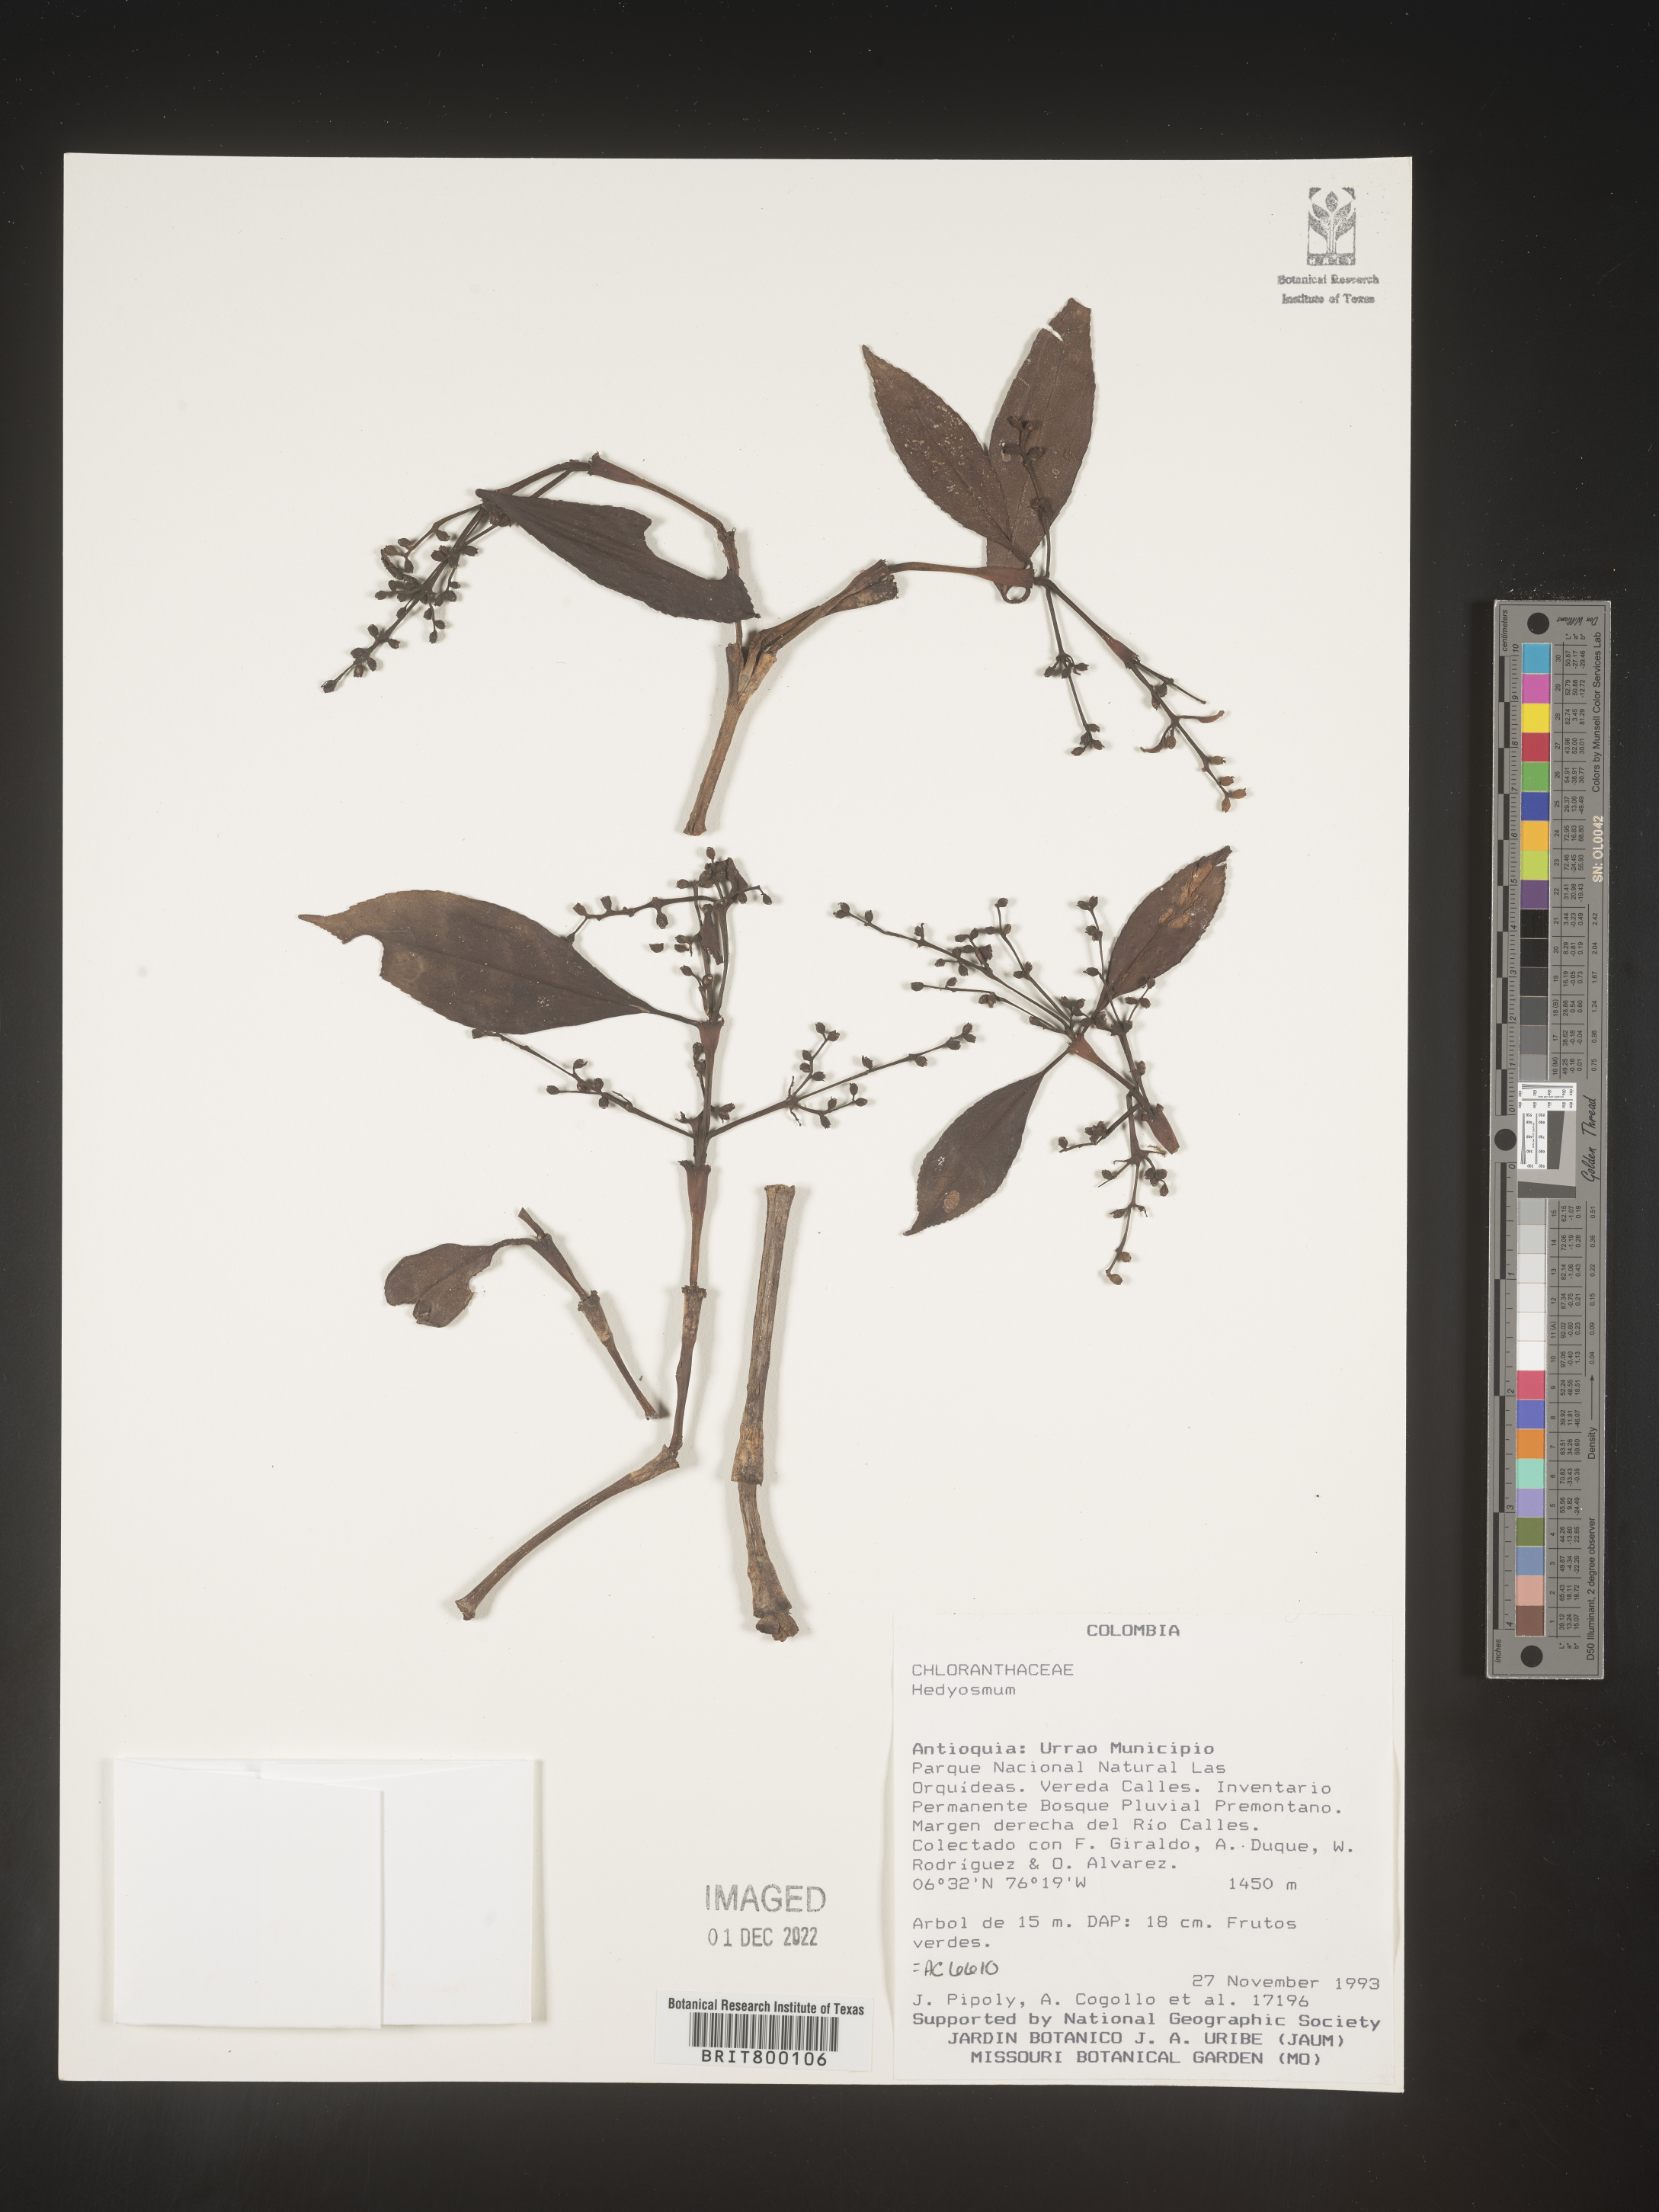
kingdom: Plantae
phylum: Tracheophyta
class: Magnoliopsida
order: Chloranthales
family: Chloranthaceae
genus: Hedyosmum
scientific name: Hedyosmum
